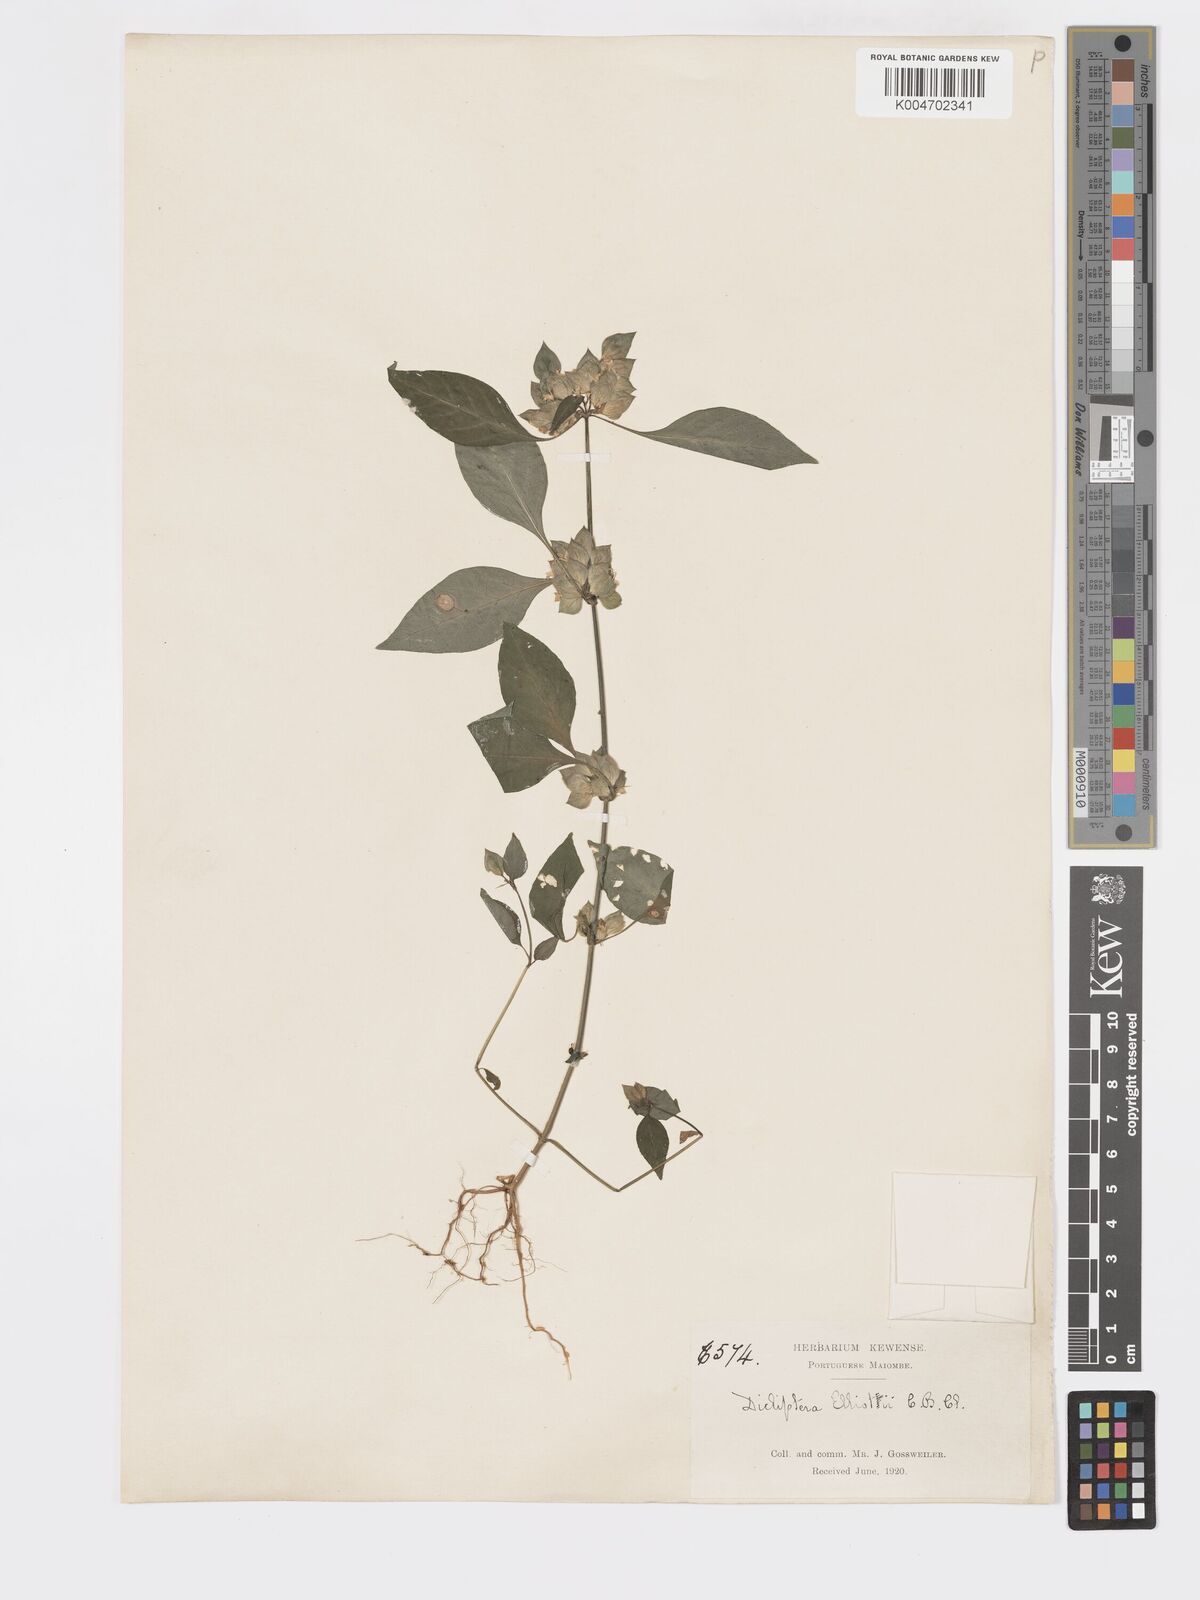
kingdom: Plantae
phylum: Tracheophyta
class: Magnoliopsida
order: Lamiales
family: Acanthaceae
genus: Dicliptera
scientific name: Dicliptera elliotii
